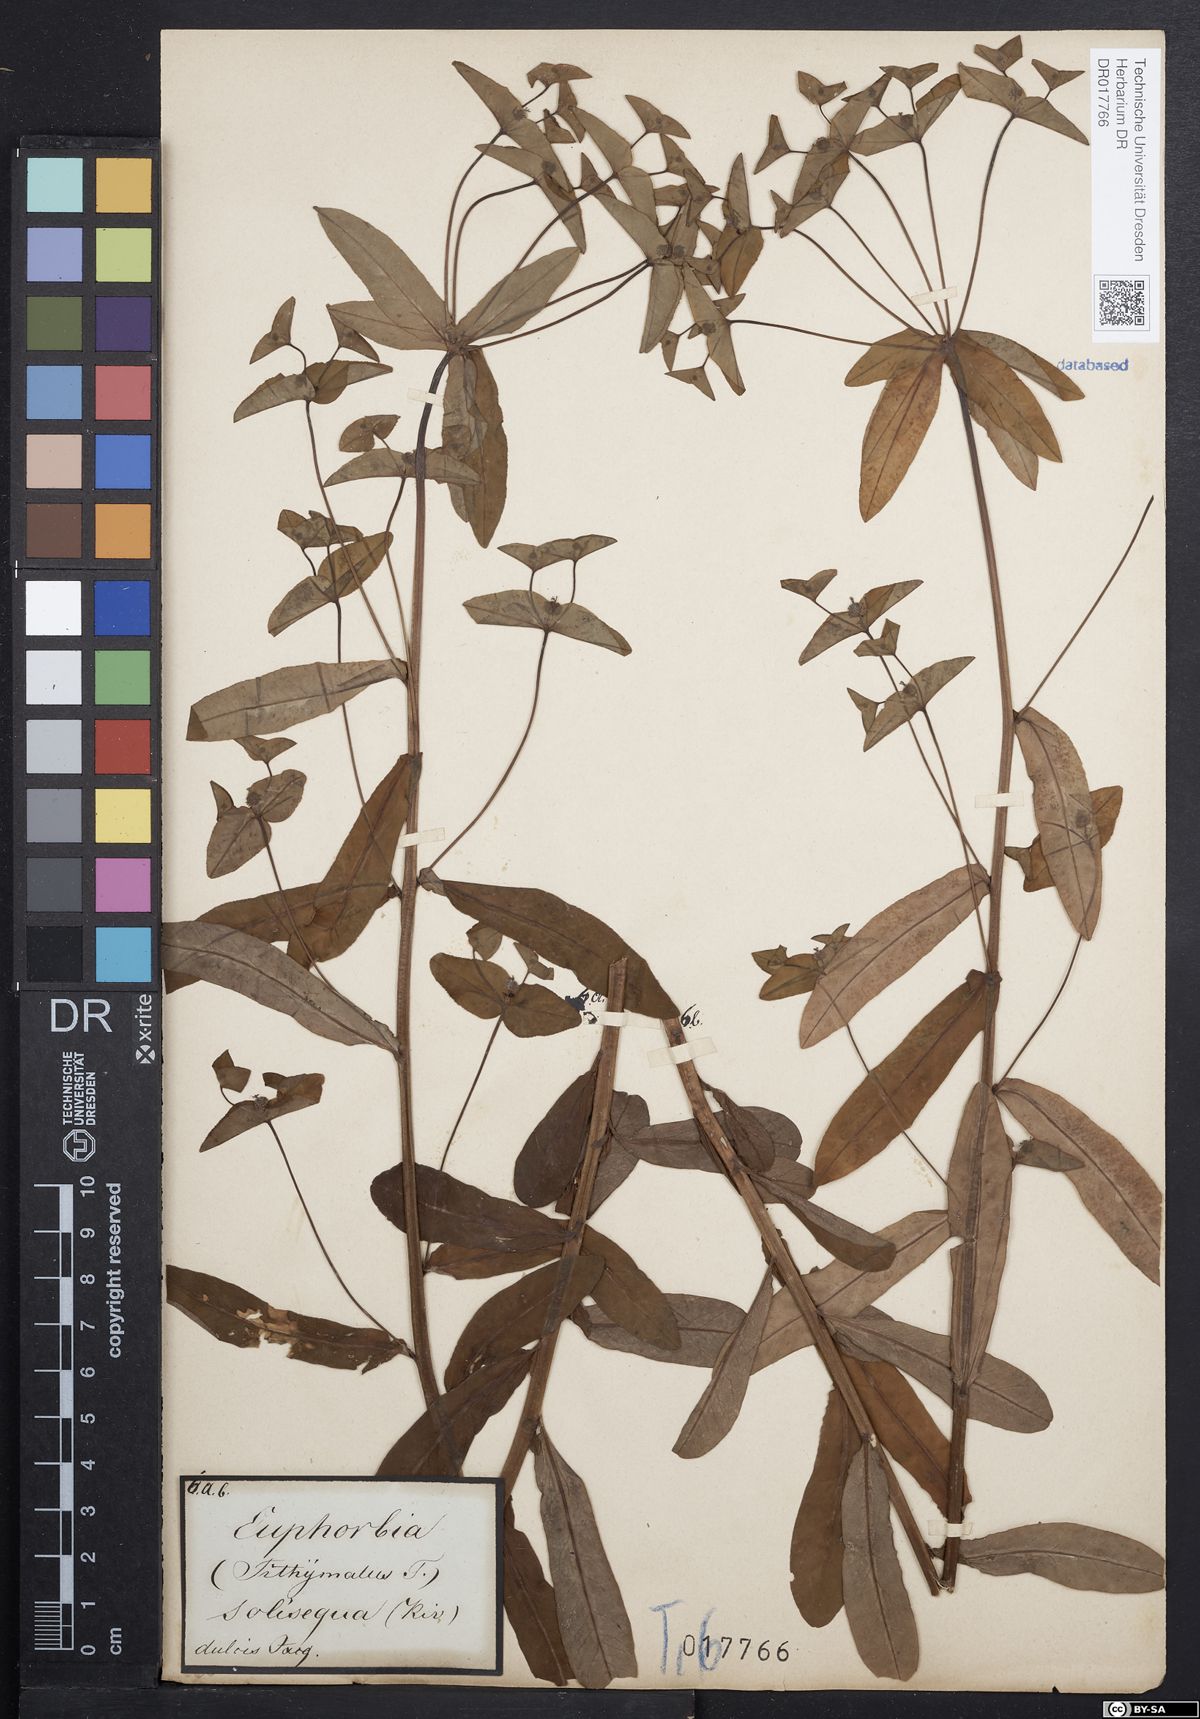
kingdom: Plantae
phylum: Tracheophyta
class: Magnoliopsida
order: Malpighiales
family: Euphorbiaceae
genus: Euphorbia
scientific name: Euphorbia dulcis
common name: Sweet spurge
